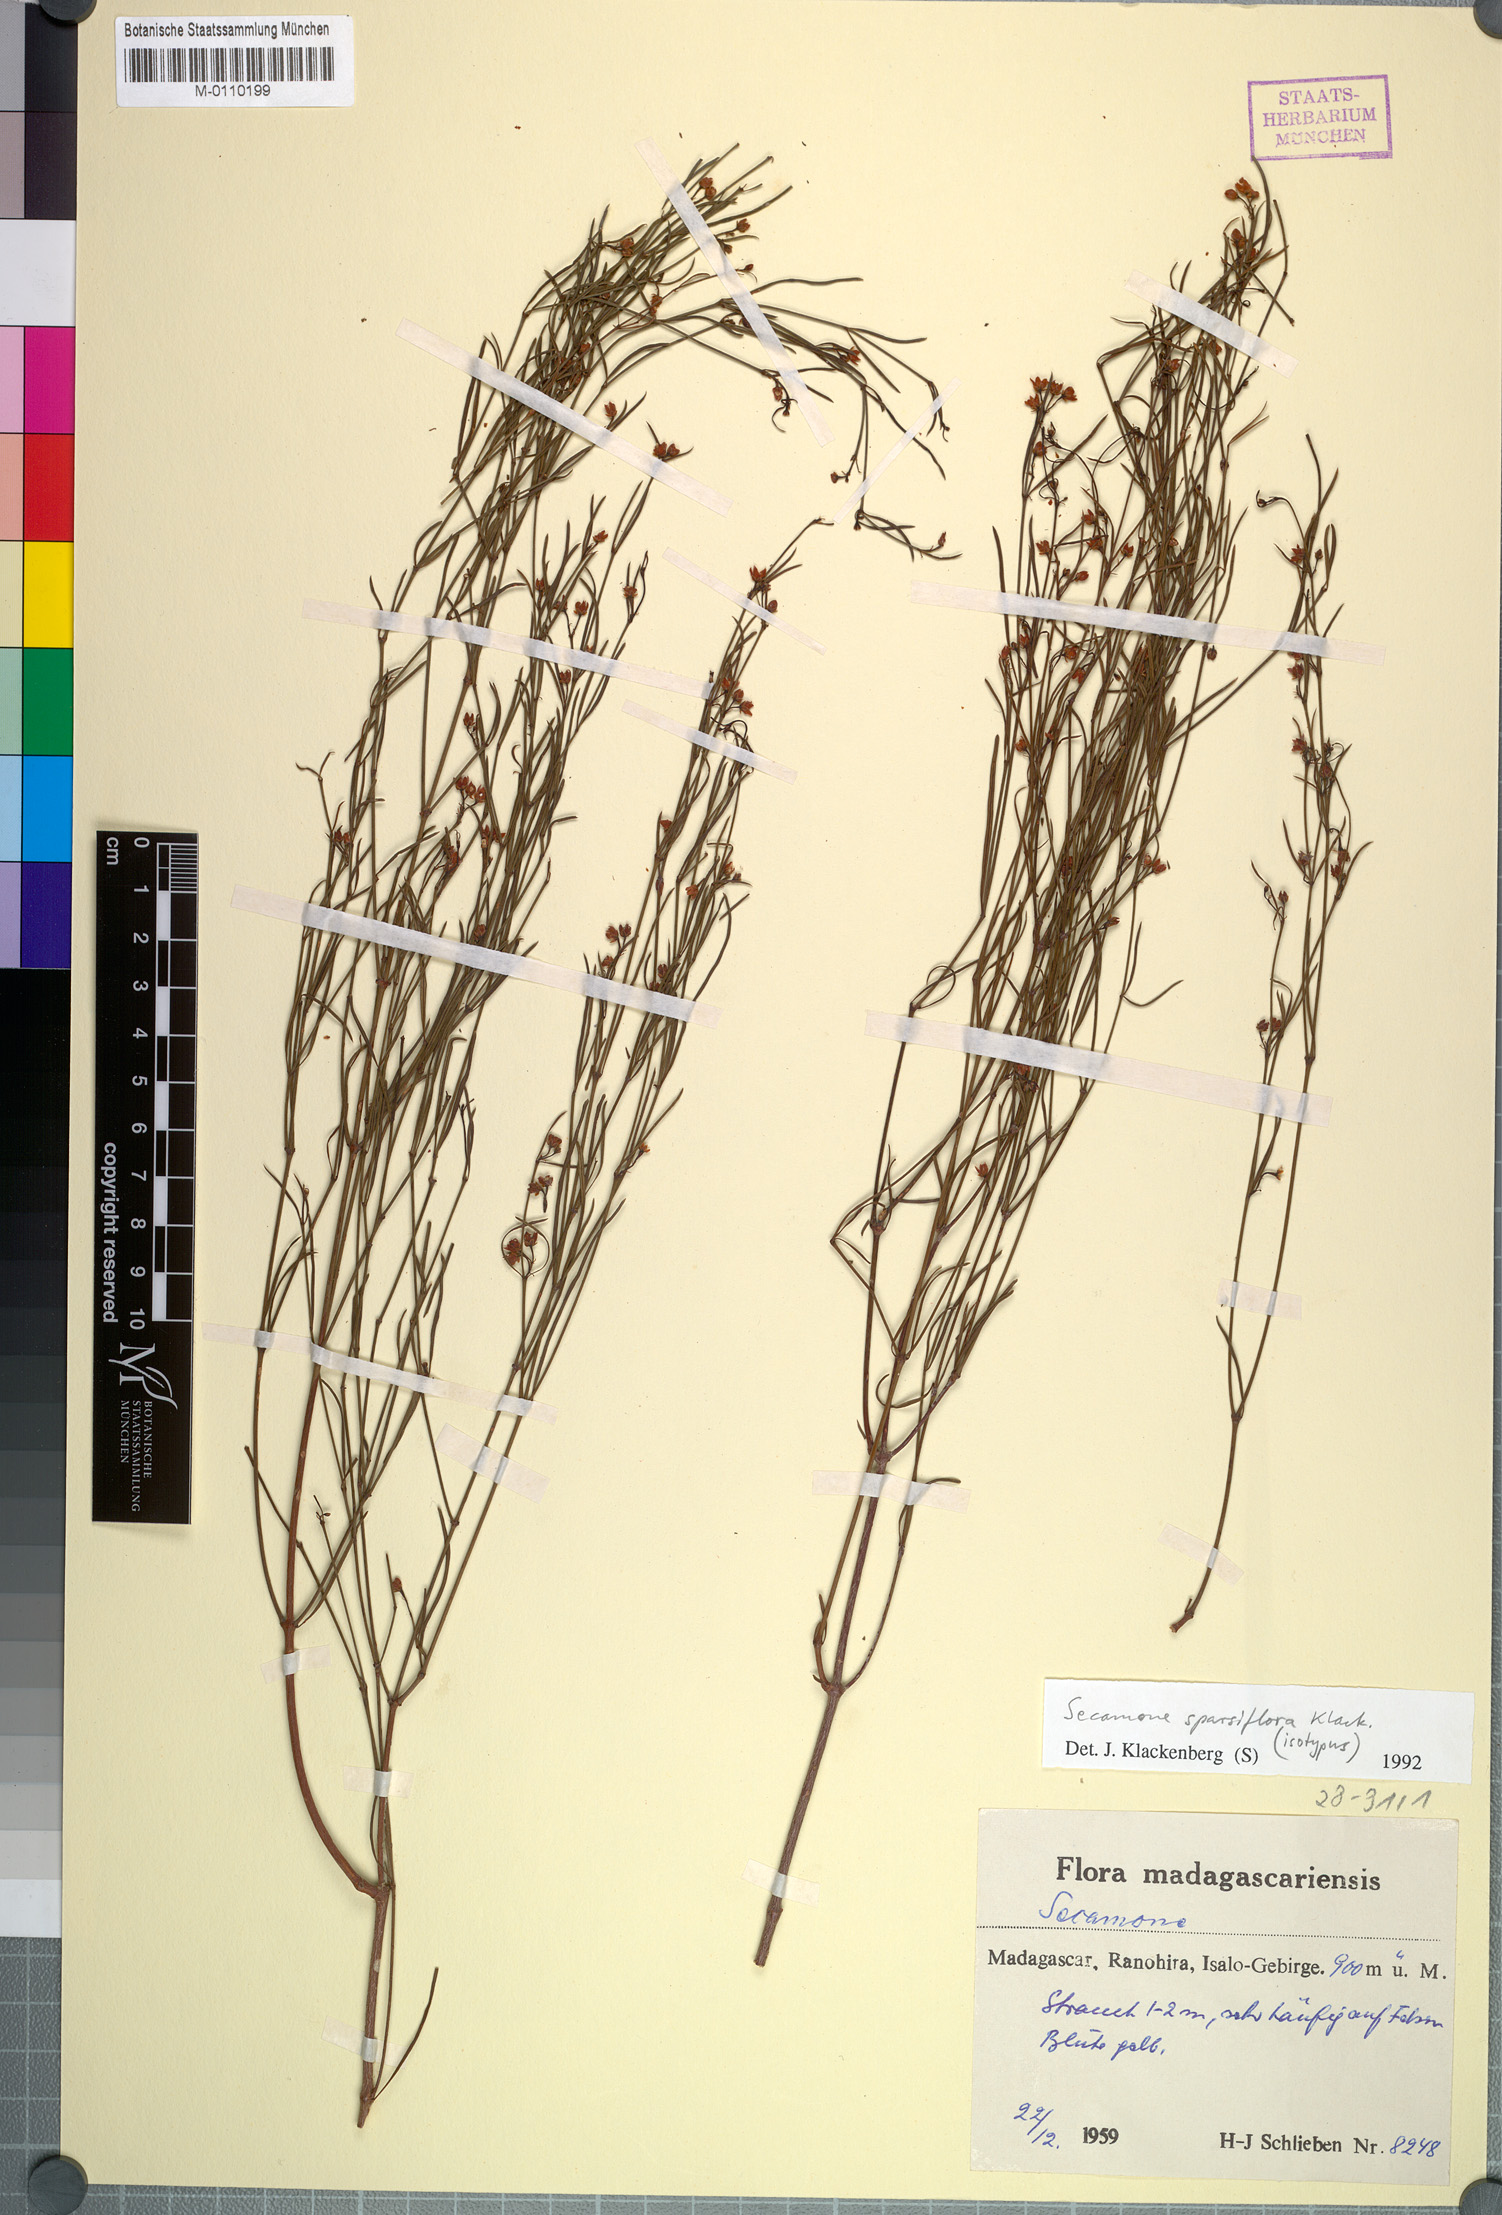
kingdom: Plantae
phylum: Tracheophyta
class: Magnoliopsida
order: Gentianales
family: Apocynaceae
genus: Secamone
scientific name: Secamone sparsiflora
